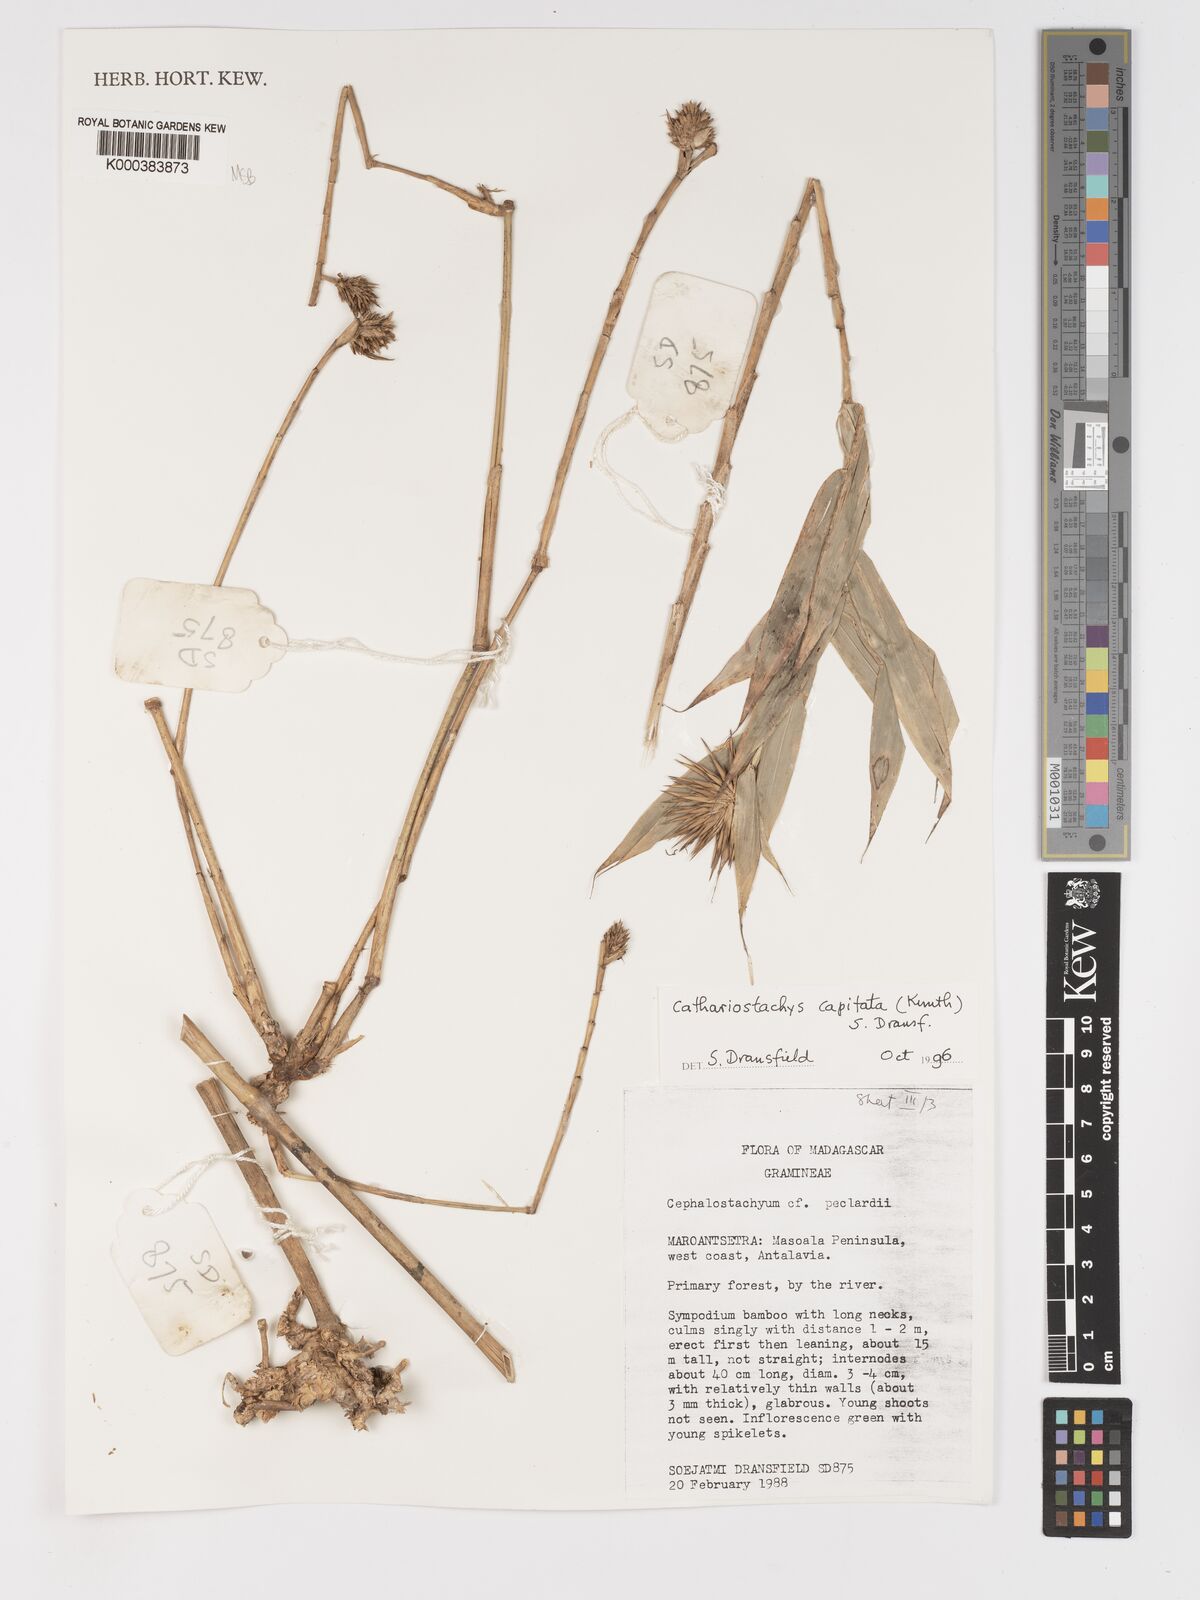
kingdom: Plantae
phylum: Tracheophyta
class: Liliopsida
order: Poales
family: Poaceae
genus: Cathariostachys
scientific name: Cathariostachys capitata
